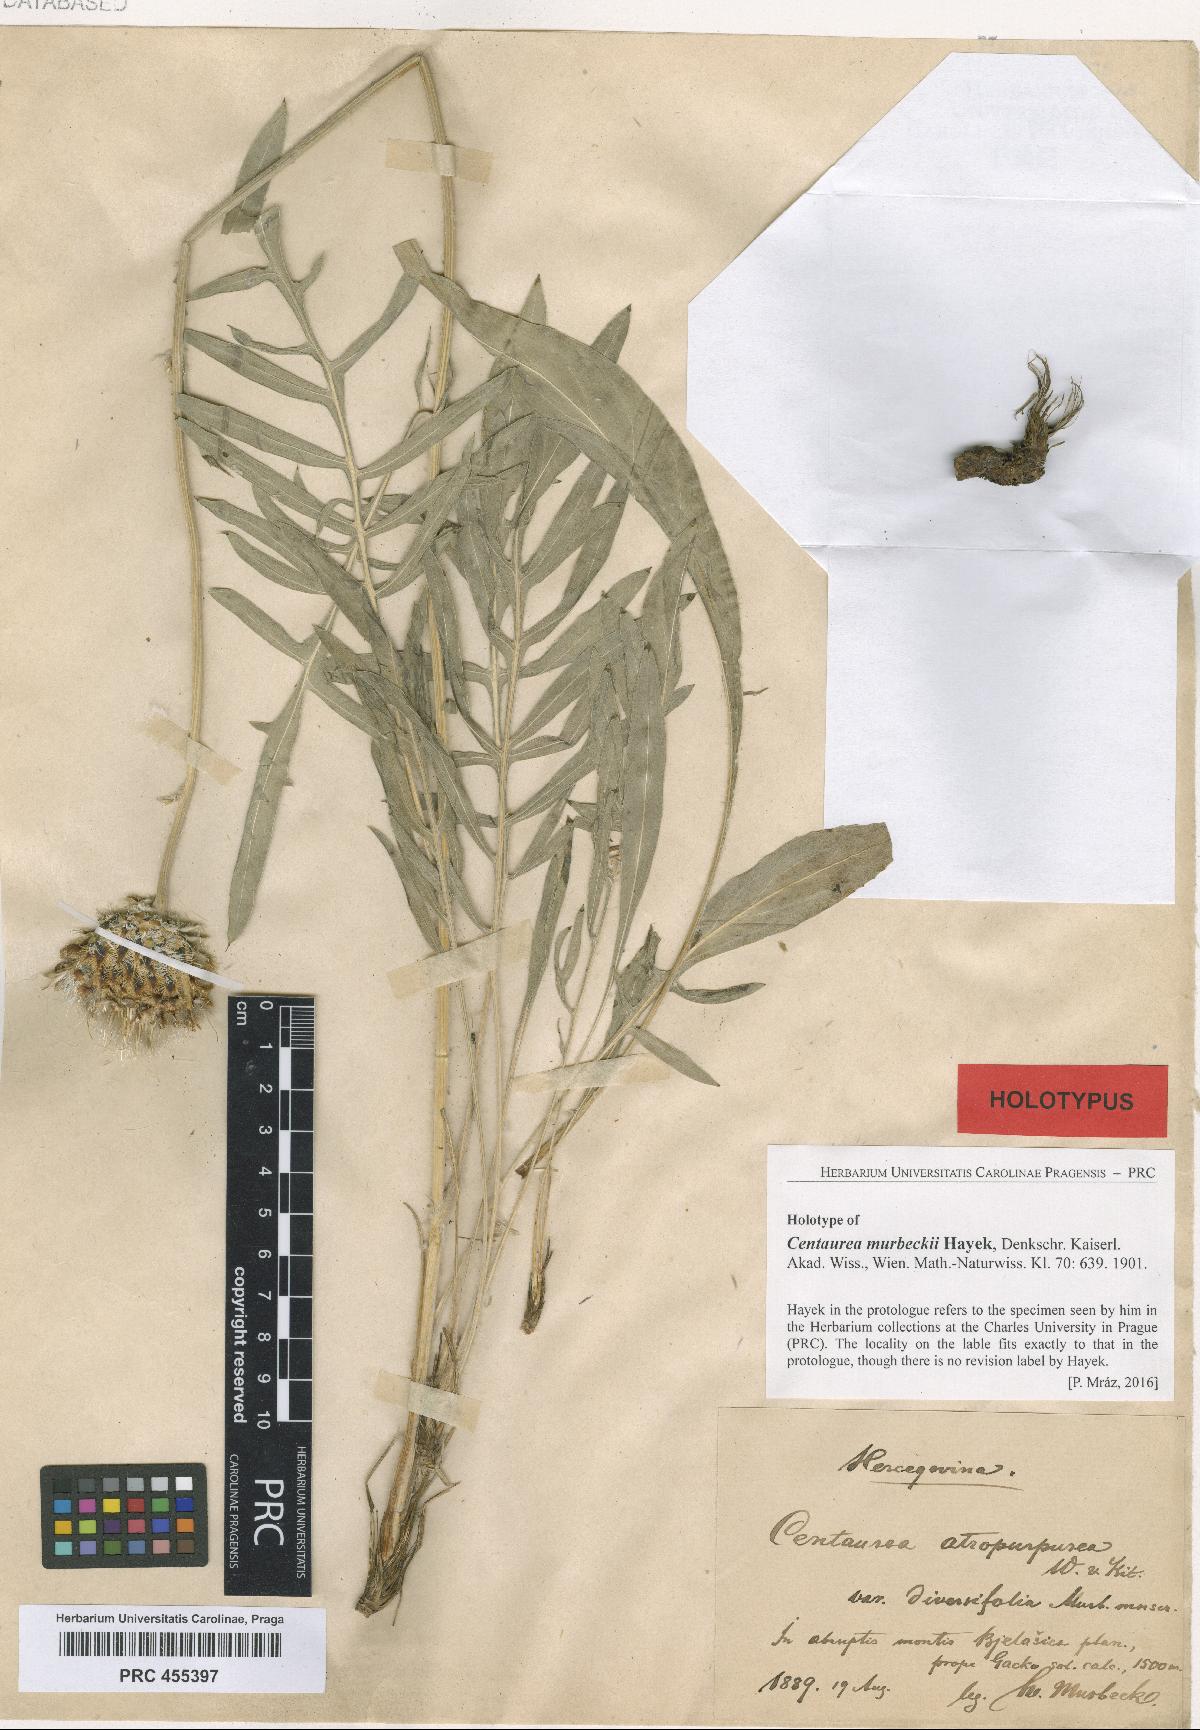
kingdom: Plantae
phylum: Tracheophyta
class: Magnoliopsida
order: Asterales
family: Asteraceae
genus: Centaurea
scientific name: Centaurea murbeckii
